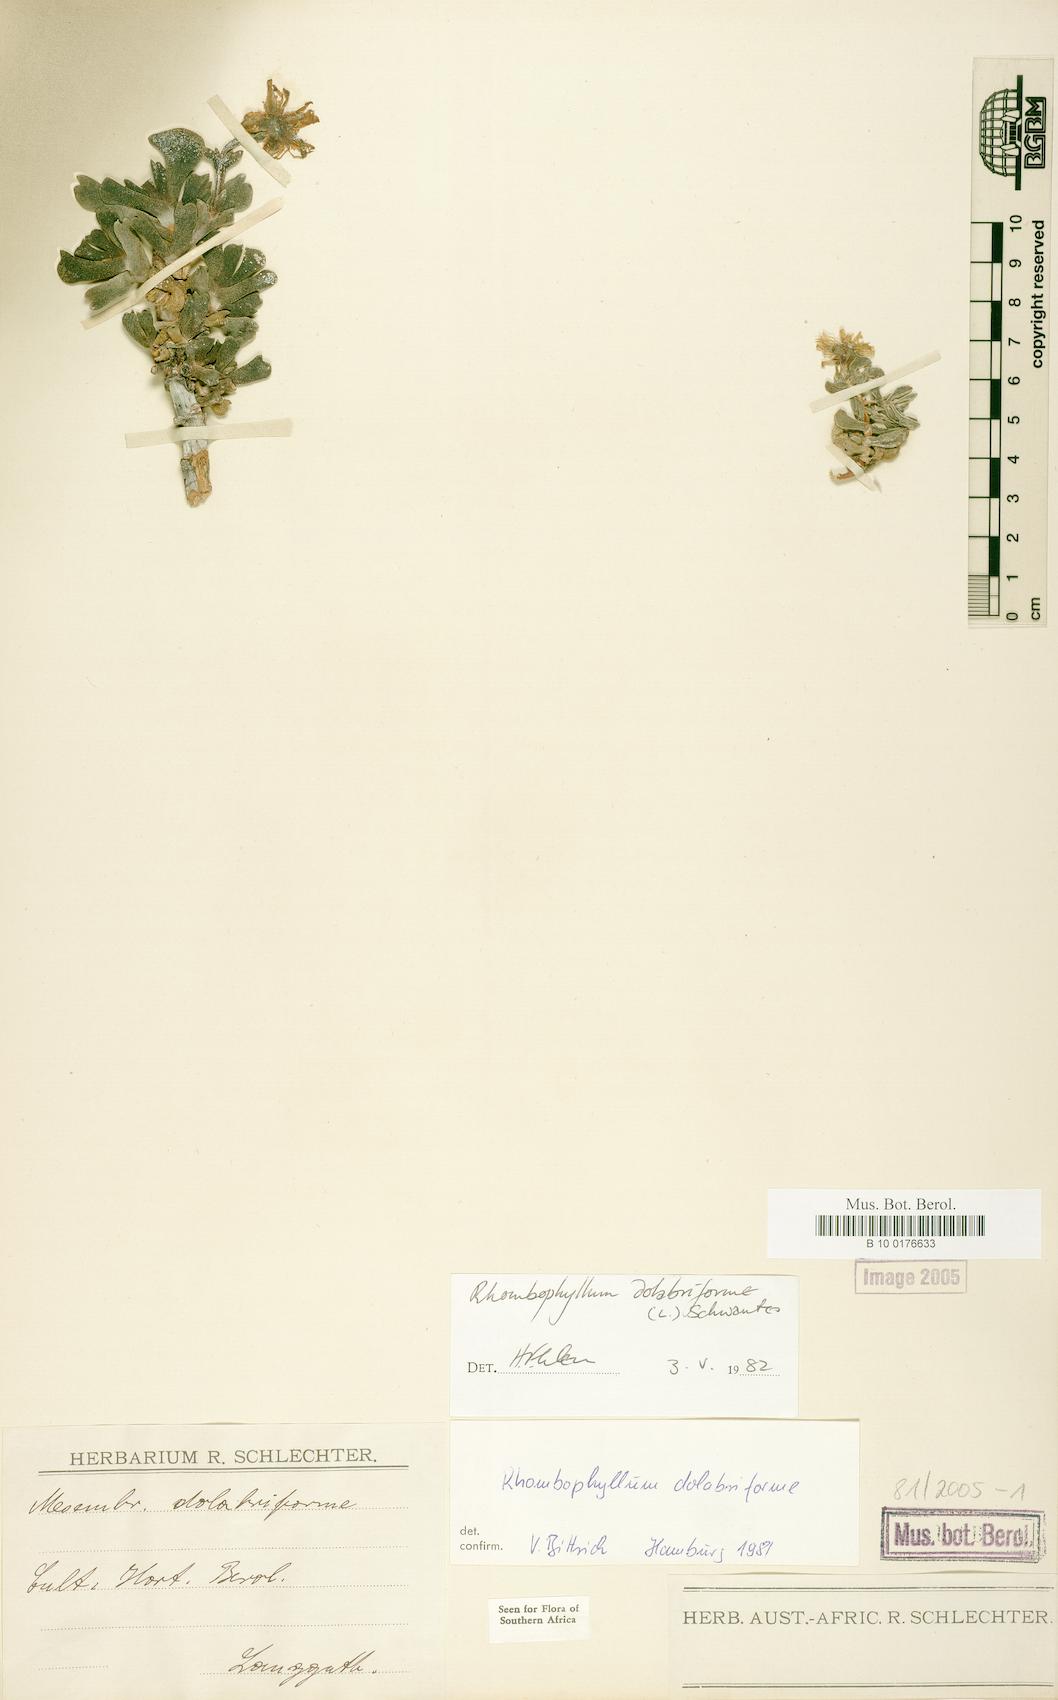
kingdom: Plantae
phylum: Tracheophyta
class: Magnoliopsida
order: Caryophyllales
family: Aizoaceae
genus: Dracophilus
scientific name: Dracophilus Rhombophyllum dolabriforme
